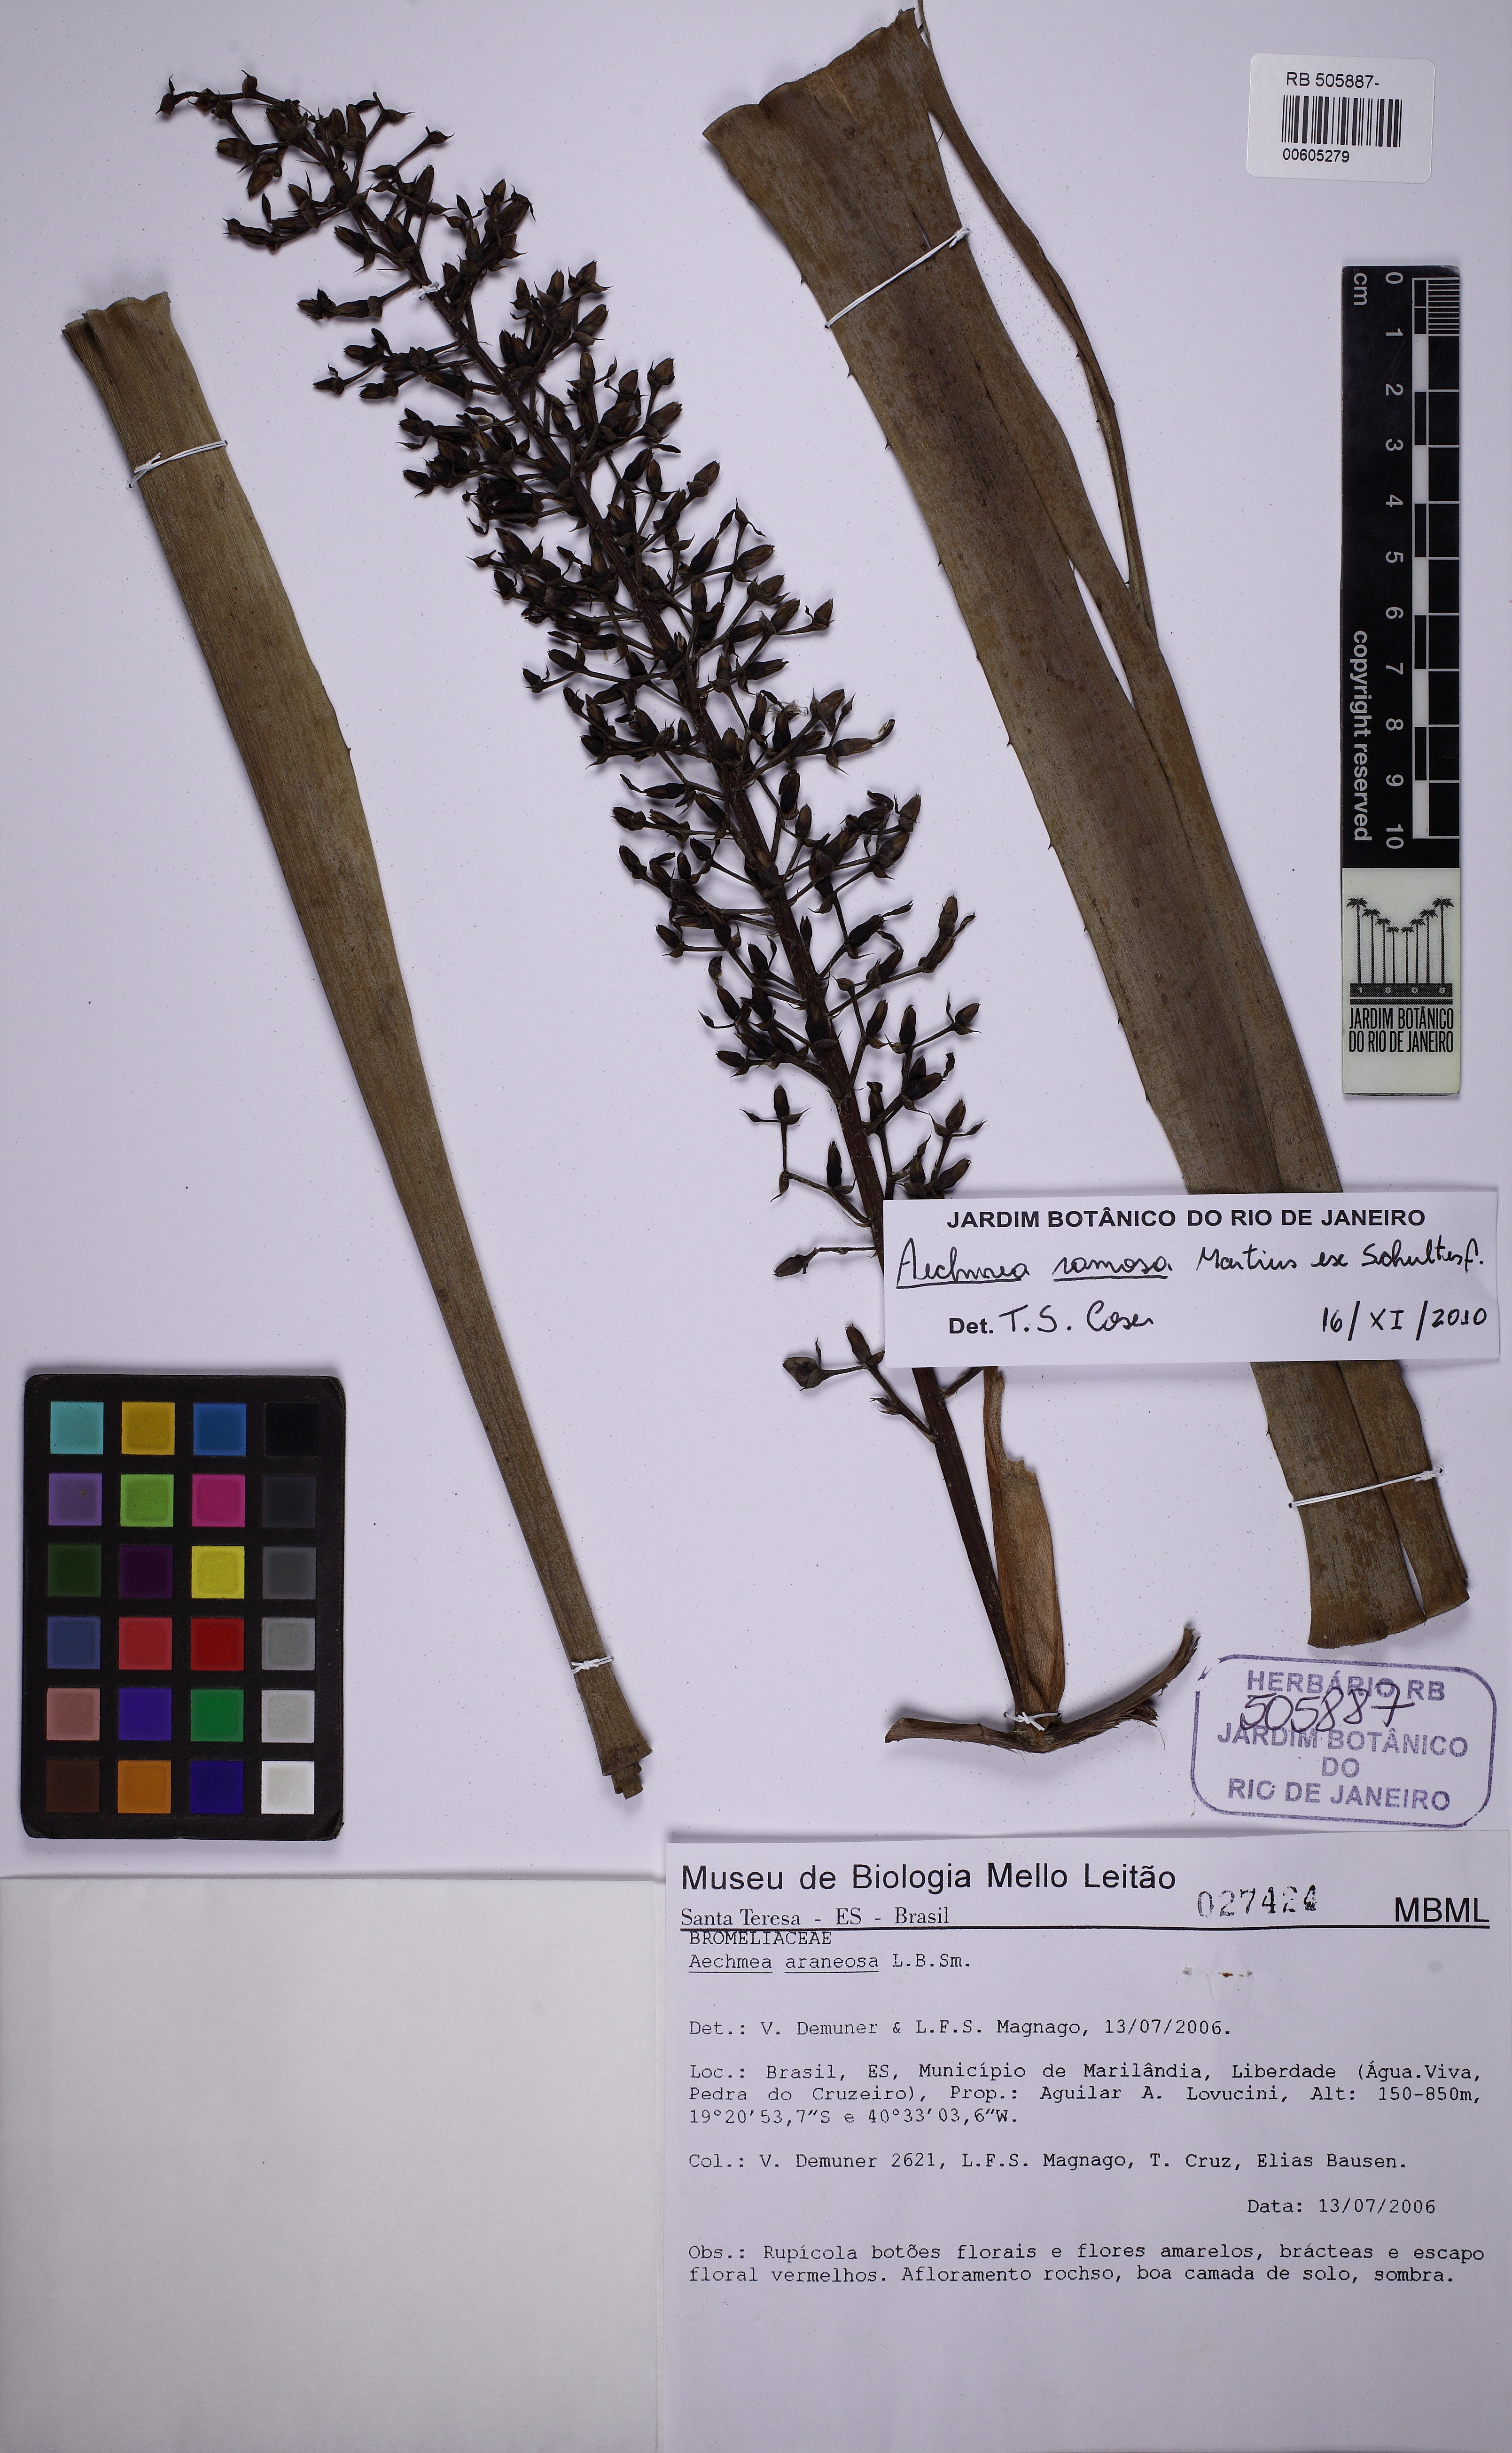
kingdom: Plantae
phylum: Tracheophyta
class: Liliopsida
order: Poales
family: Bromeliaceae
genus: Aechmea
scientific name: Aechmea ramosa
